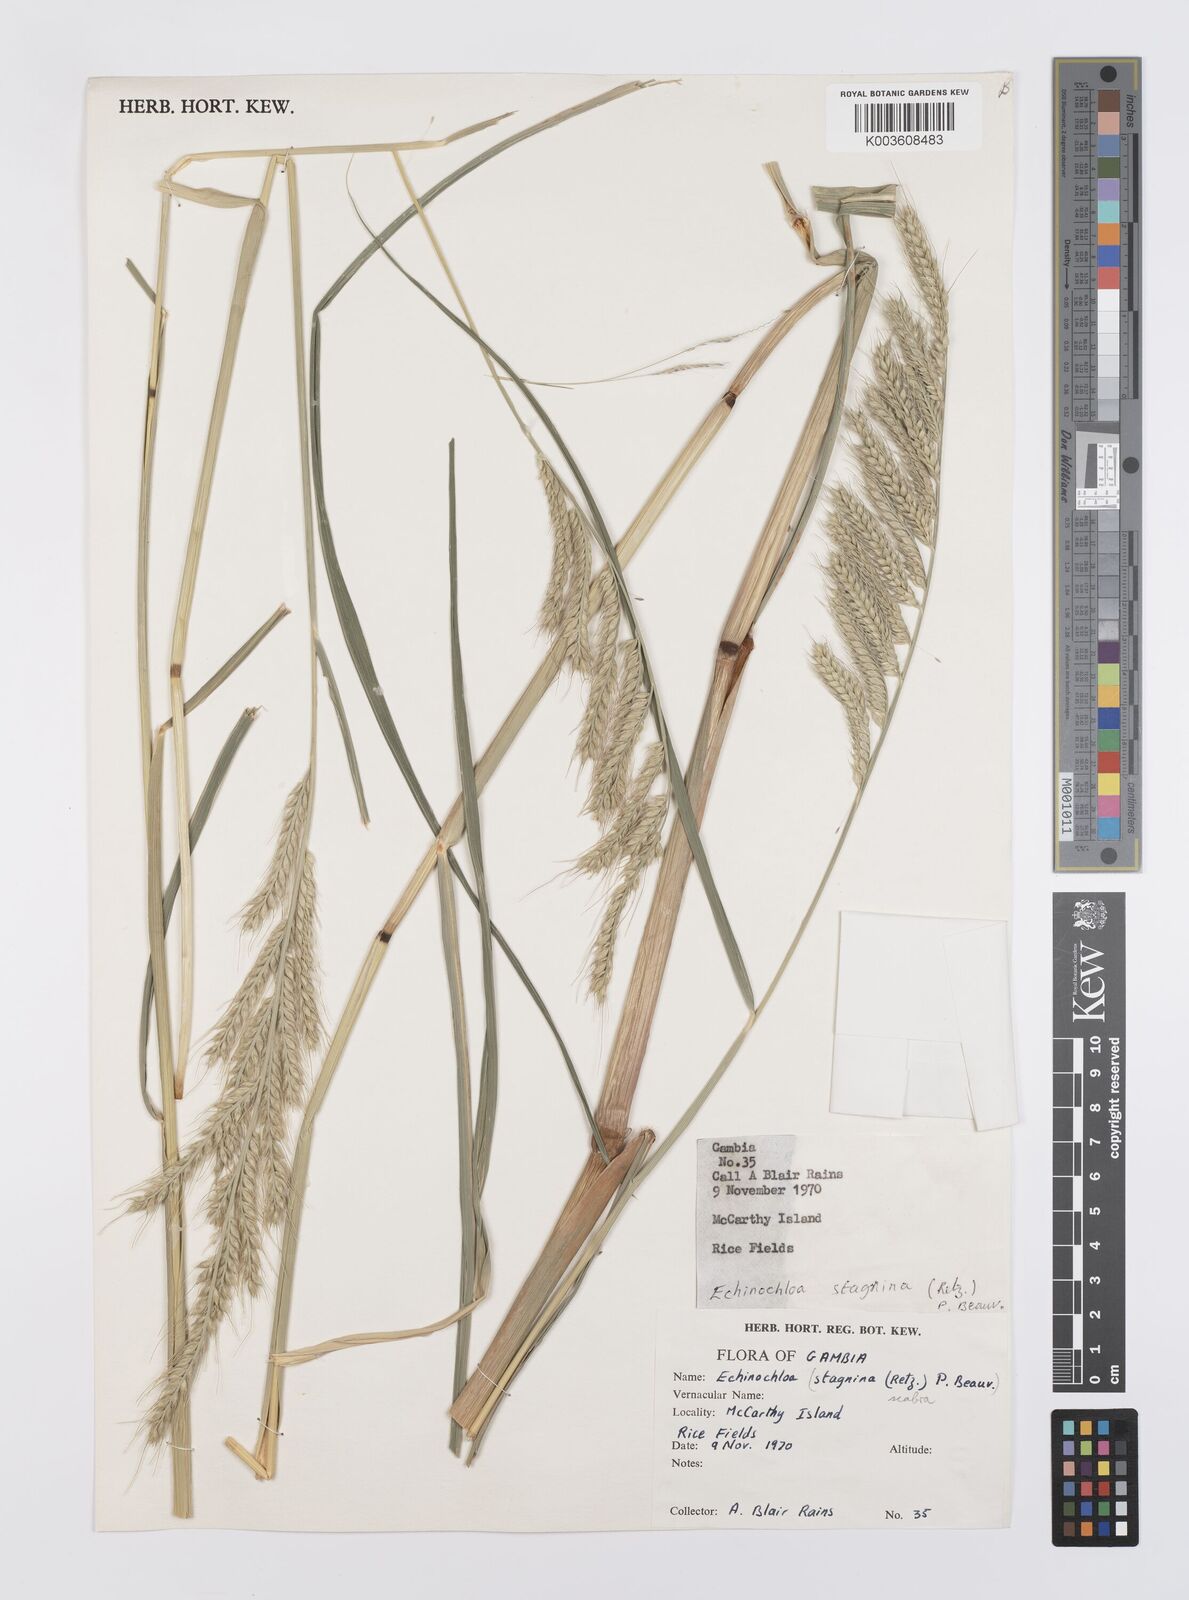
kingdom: Plantae
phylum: Tracheophyta
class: Liliopsida
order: Poales
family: Poaceae
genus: Echinochloa
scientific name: Echinochloa stagnina
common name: Burgu grass
